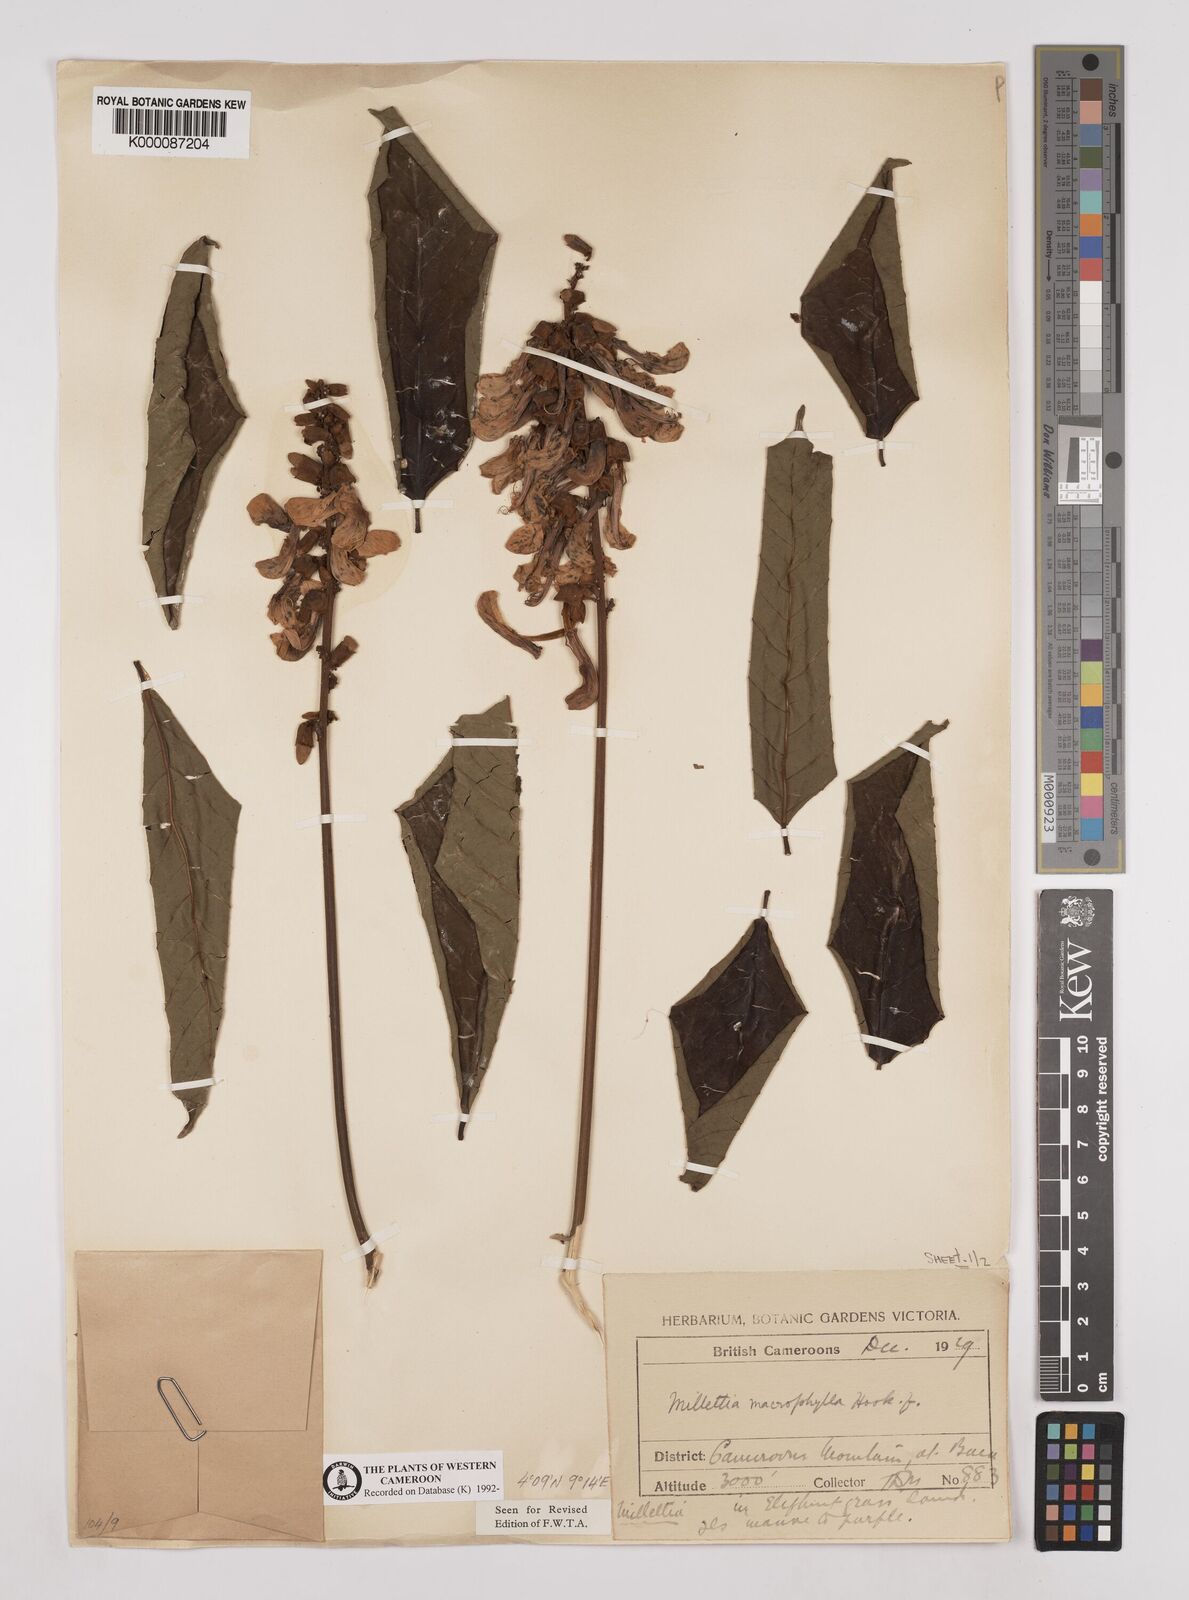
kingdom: Plantae
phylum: Tracheophyta
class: Magnoliopsida
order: Fabales
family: Fabaceae
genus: Millettia
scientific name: Millettia macrophylla
